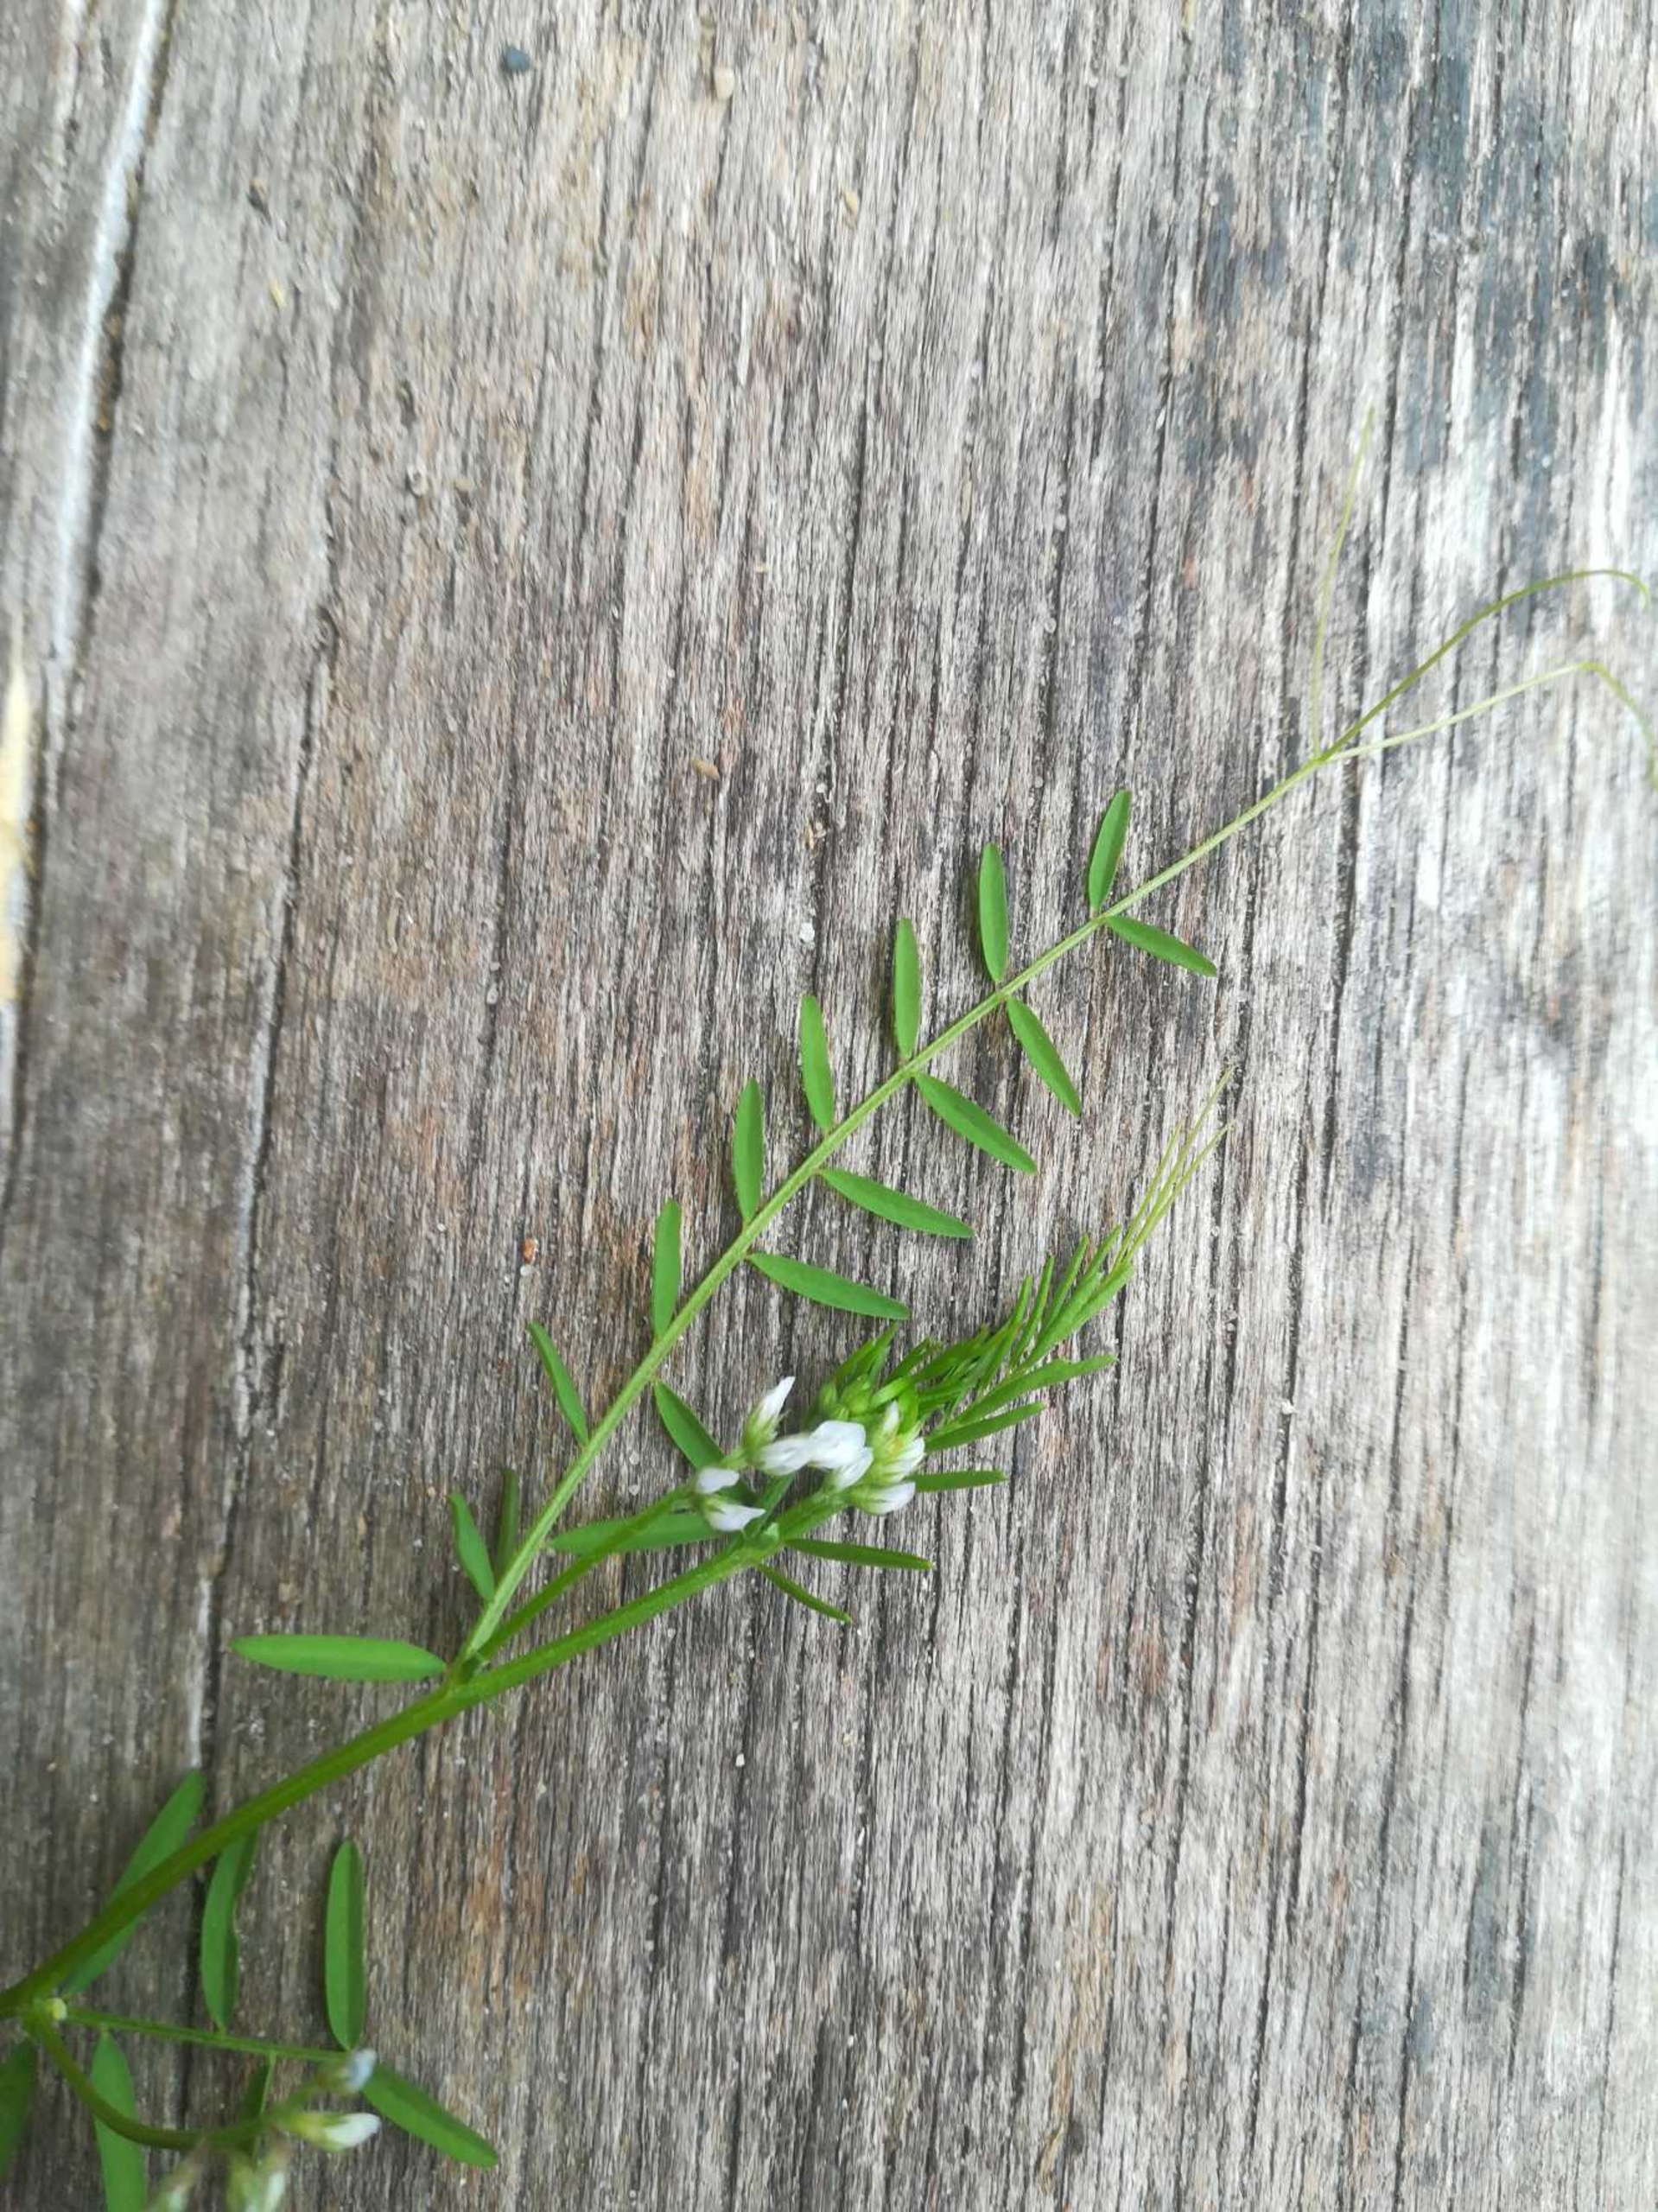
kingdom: Plantae
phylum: Tracheophyta
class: Magnoliopsida
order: Fabales
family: Fabaceae
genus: Vicia
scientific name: Vicia hirsuta
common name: Tofrøet vikke
